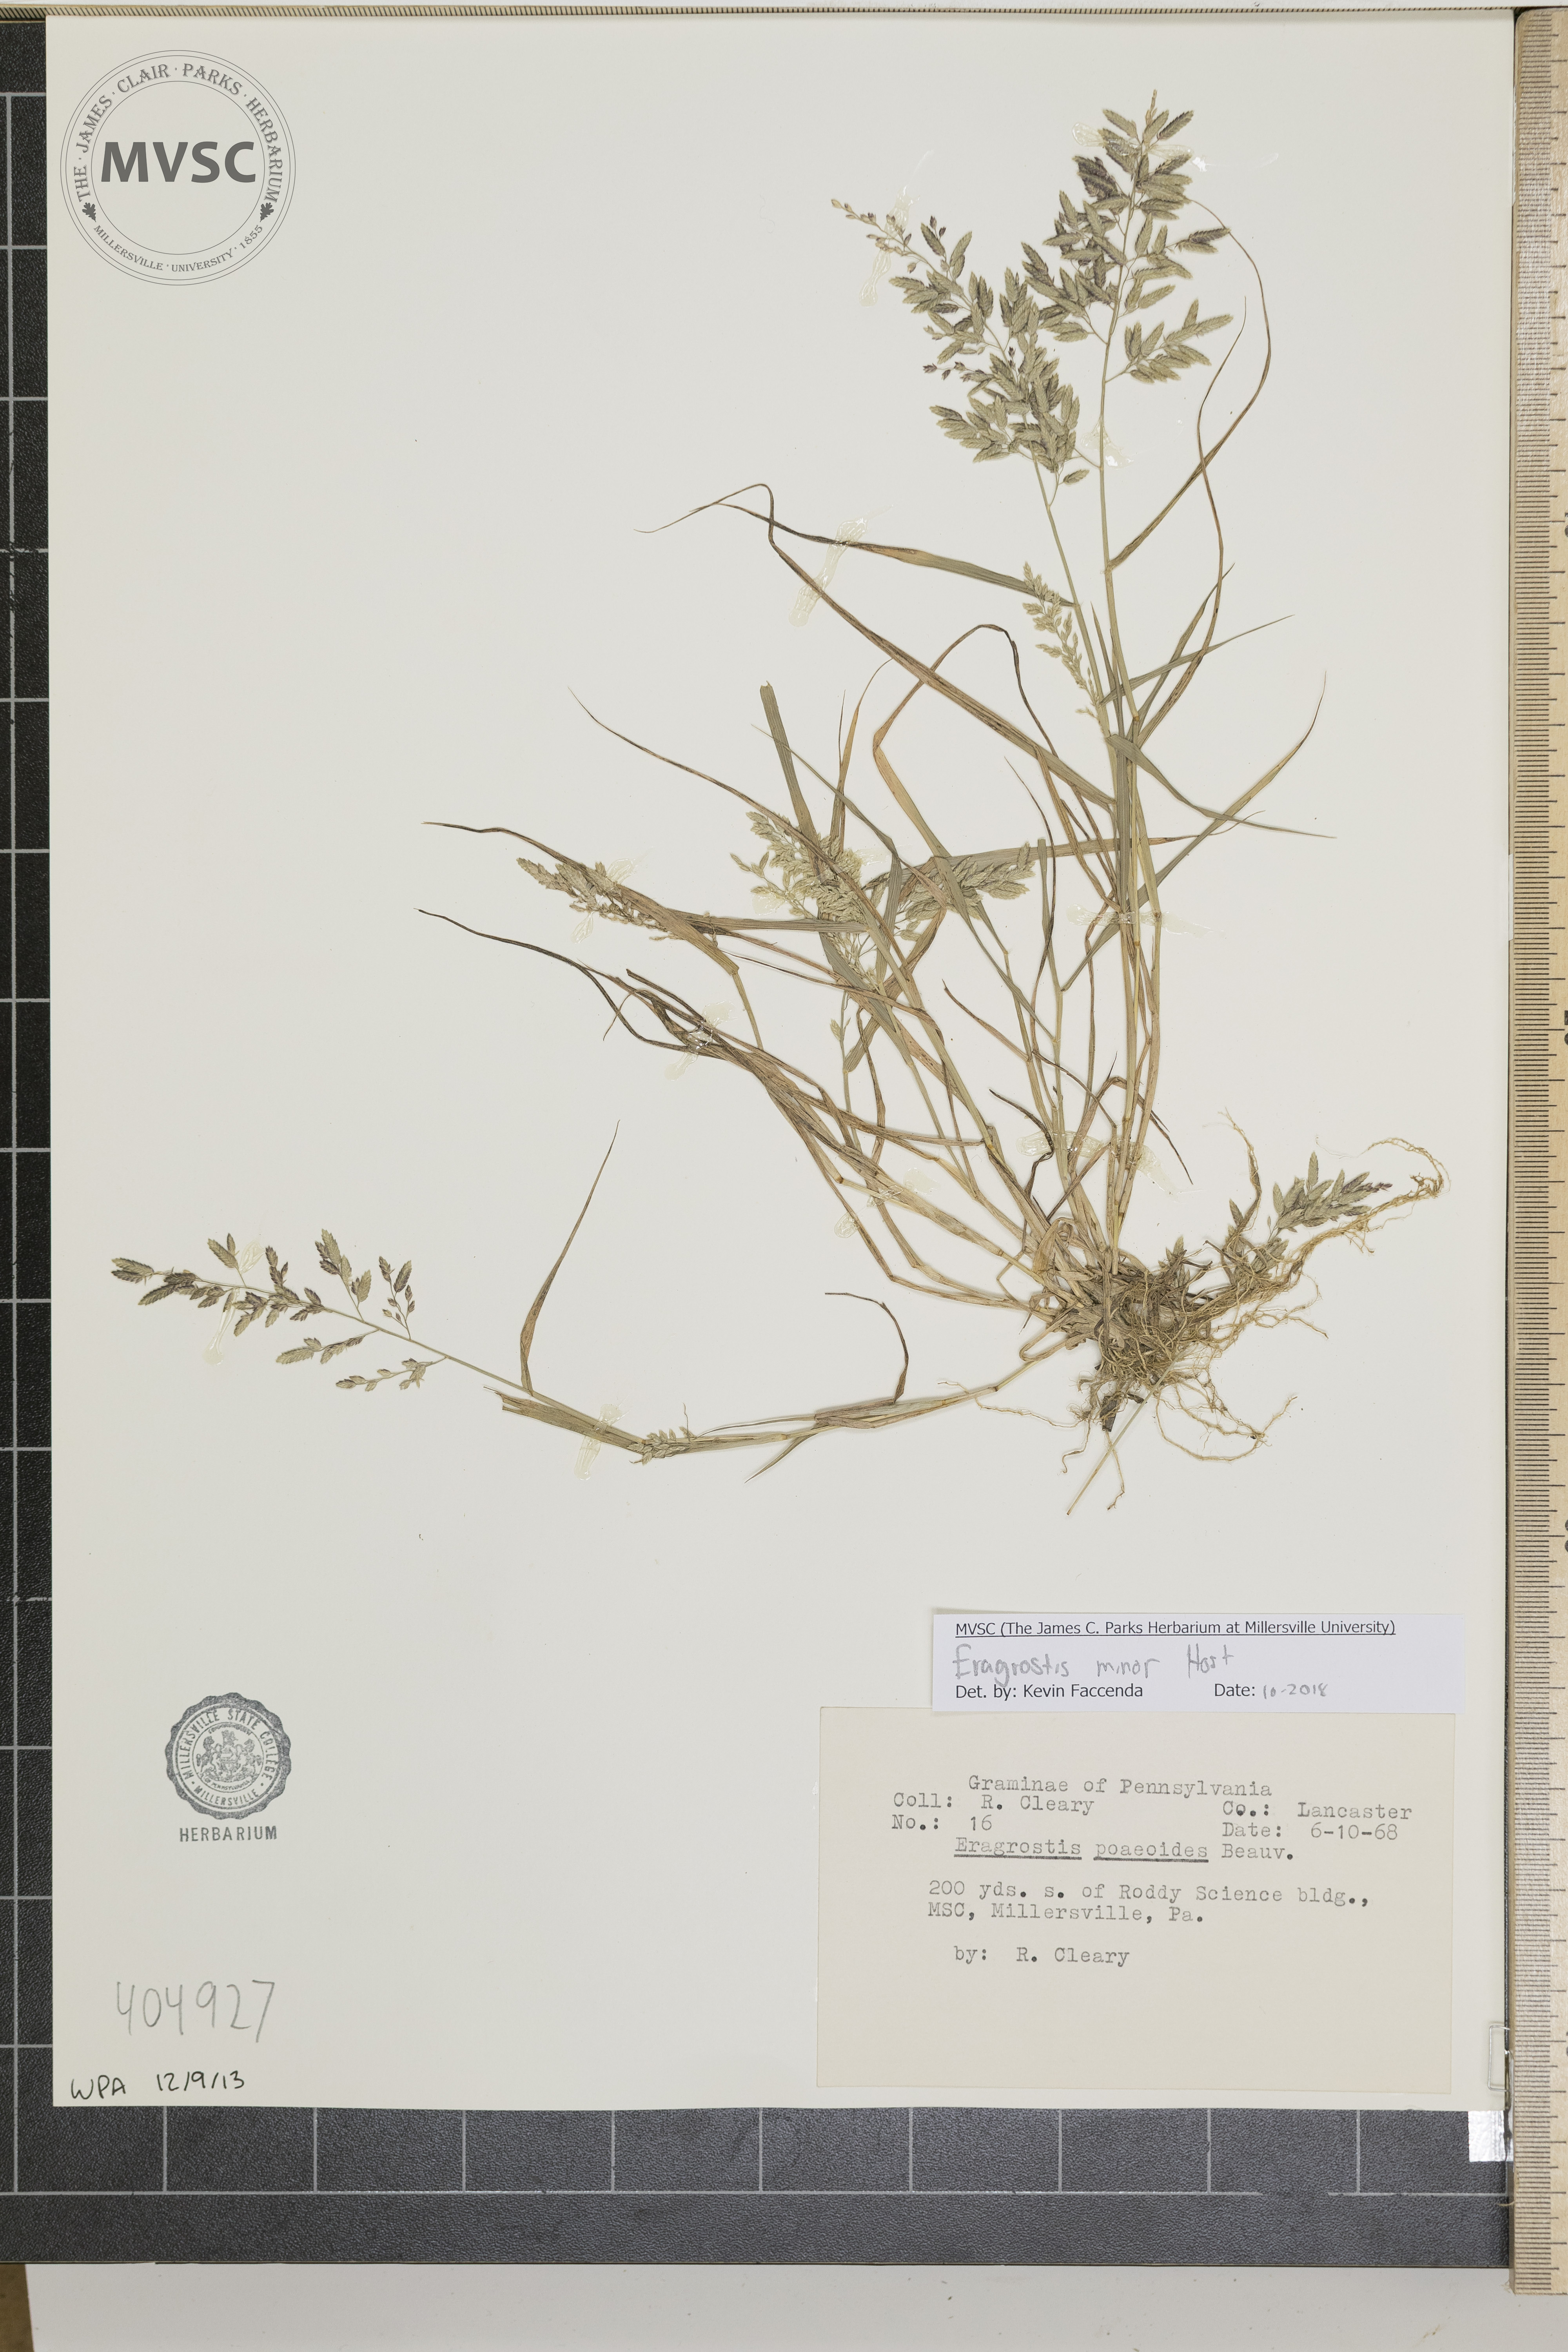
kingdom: Plantae
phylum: Tracheophyta
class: Liliopsida
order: Poales
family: Poaceae
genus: Eragrostis
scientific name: Eragrostis minor
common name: Small love-grass
